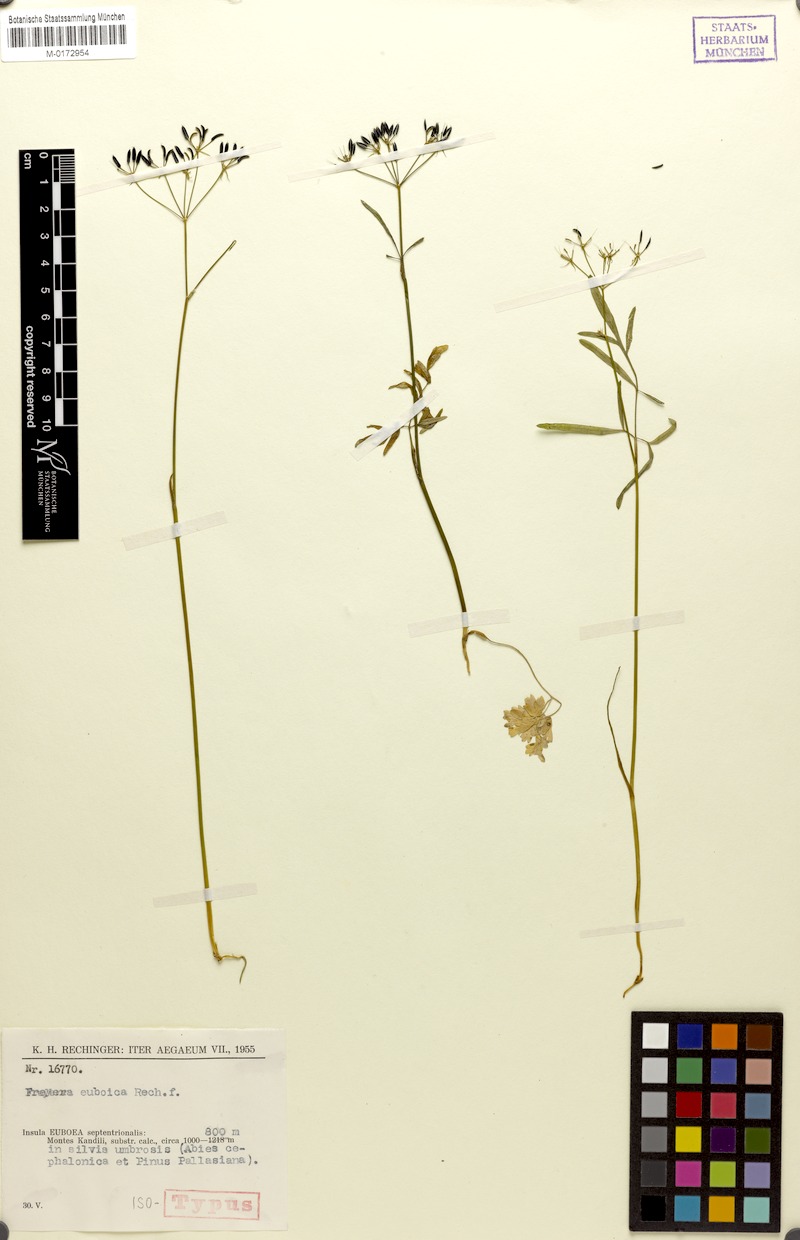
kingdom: Plantae
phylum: Tracheophyta
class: Magnoliopsida
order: Apiales
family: Apiaceae
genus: Geocaryum
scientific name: Geocaryum euboicum
